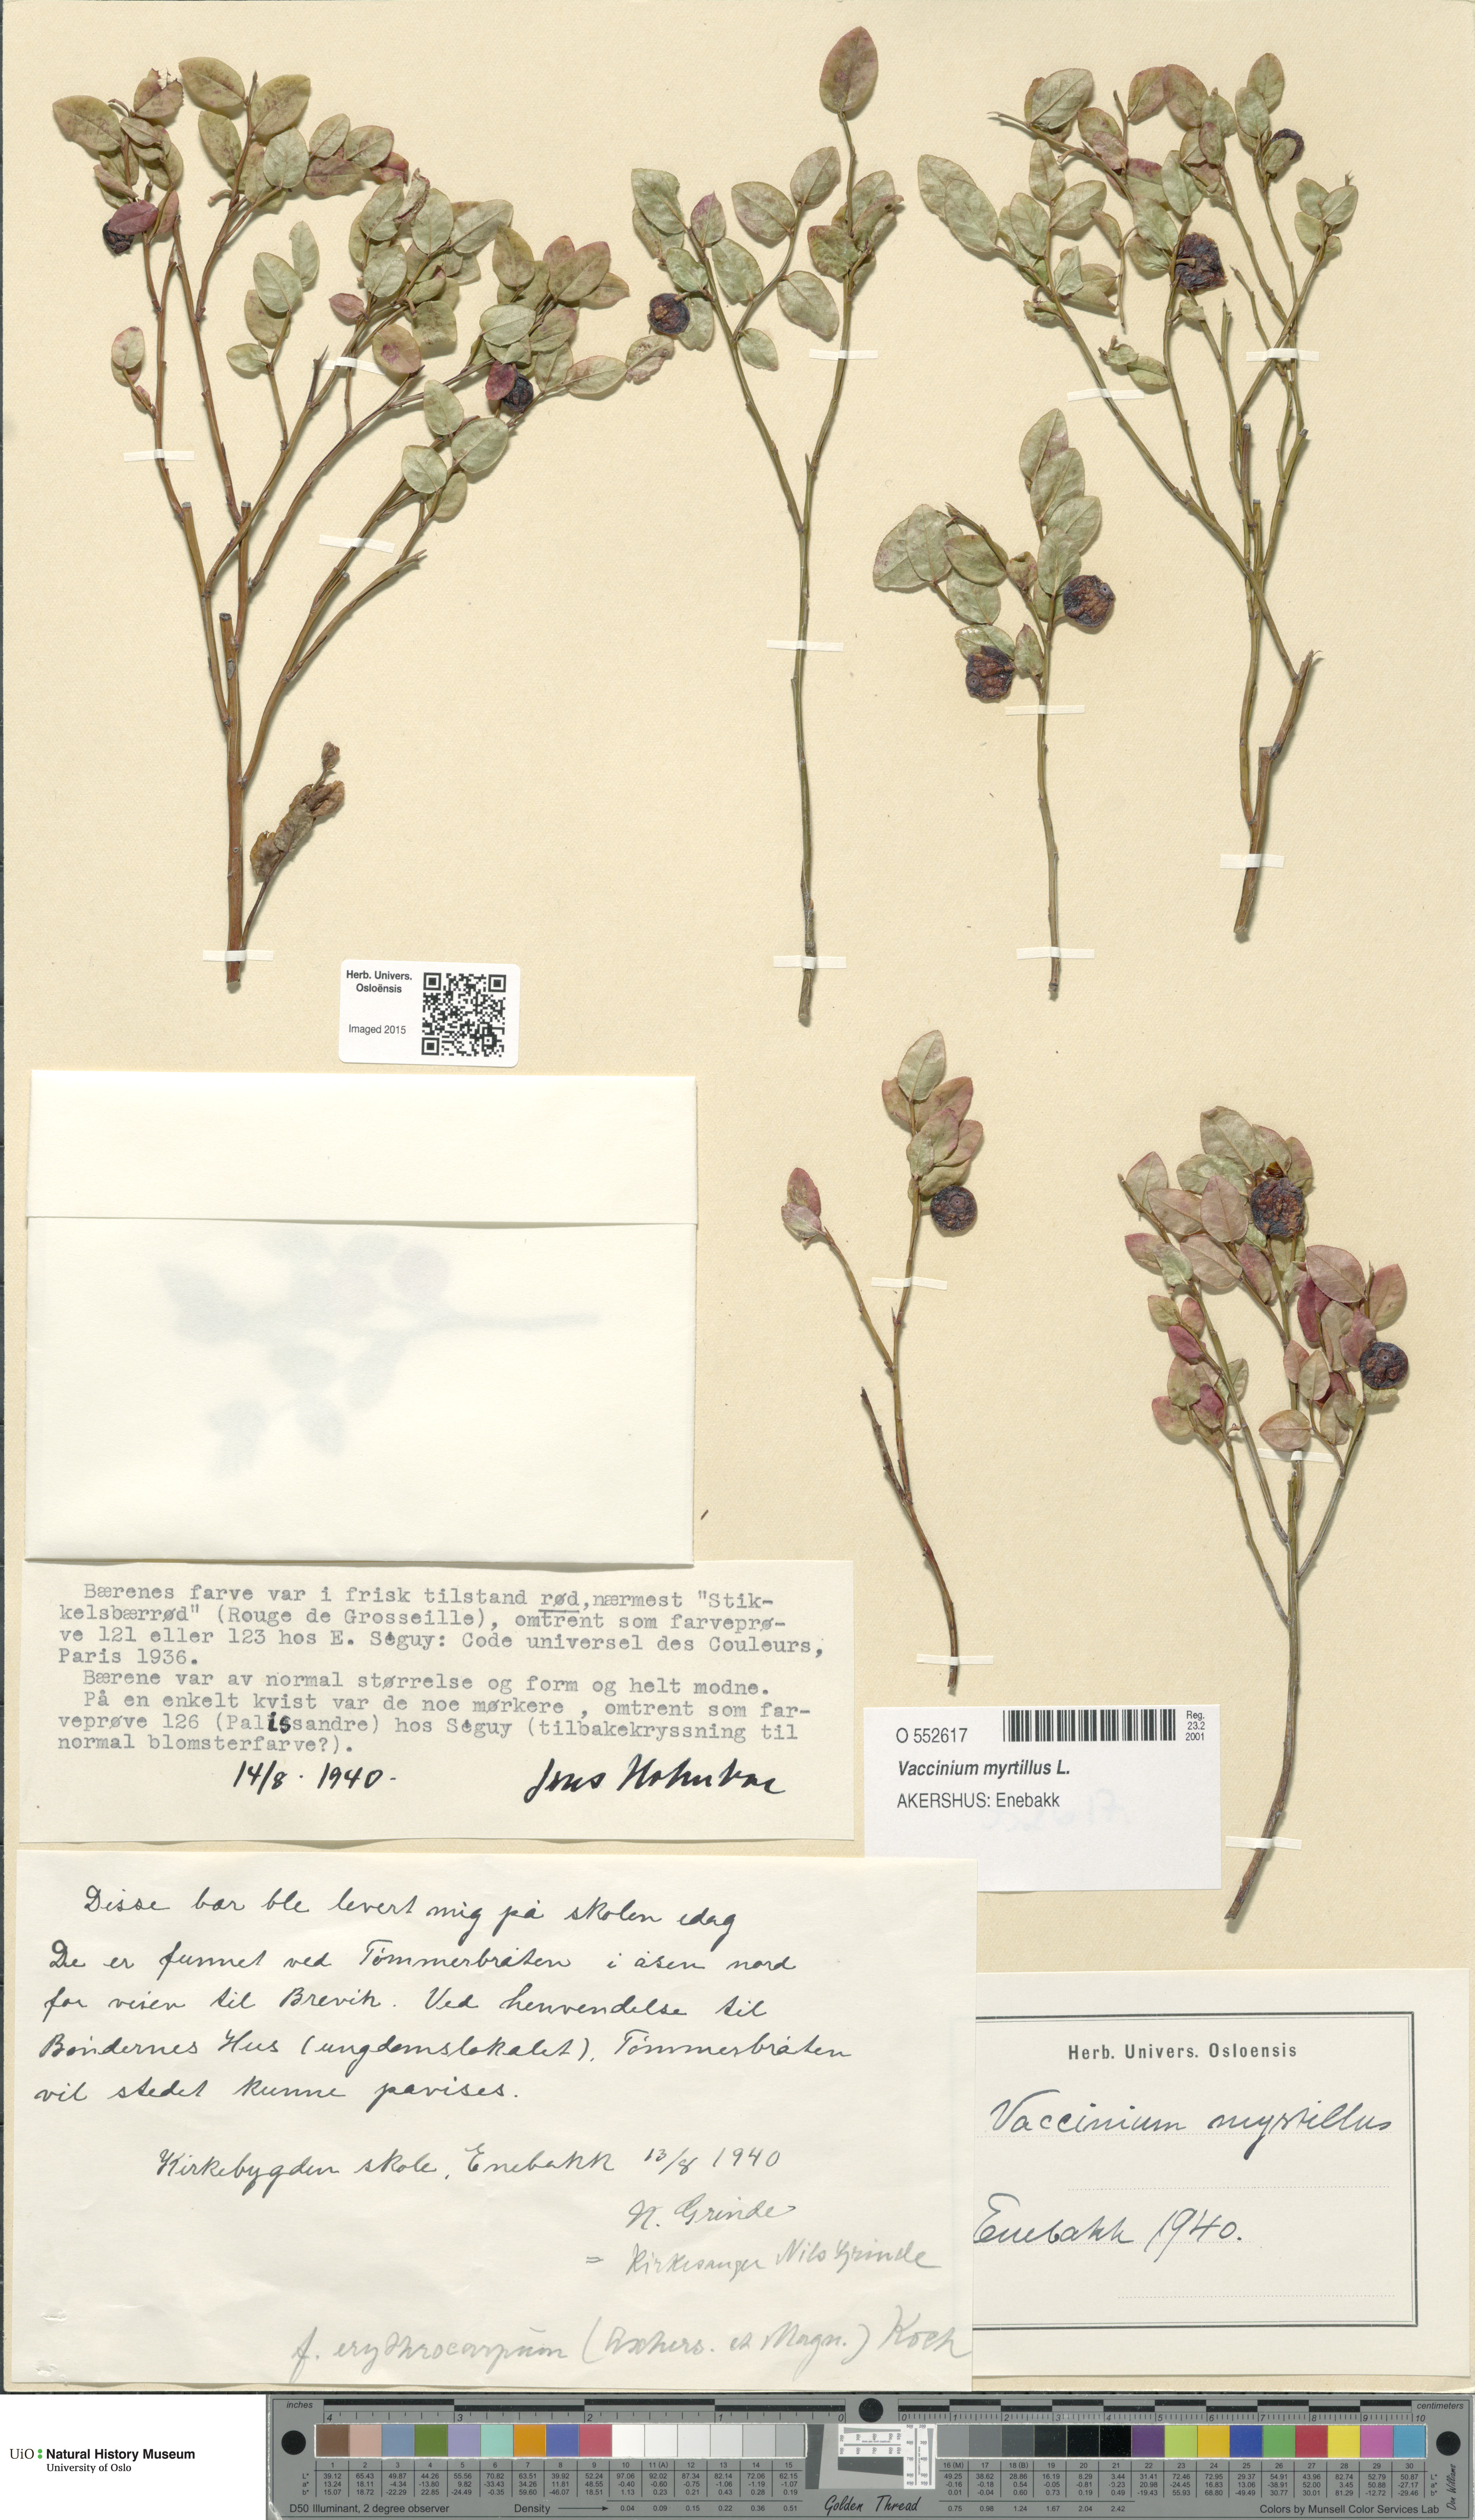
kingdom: Plantae
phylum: Tracheophyta
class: Magnoliopsida
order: Ericales
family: Ericaceae
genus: Vaccinium
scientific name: Vaccinium myrtillus
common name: Bilberry
